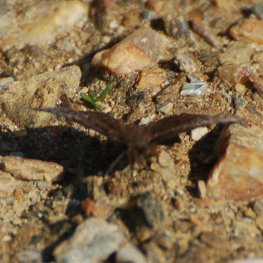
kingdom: Animalia
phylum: Arthropoda
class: Insecta
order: Lepidoptera
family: Hesperiidae
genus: Erynnis
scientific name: Erynnis icelus
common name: Dreamy Duskywing
